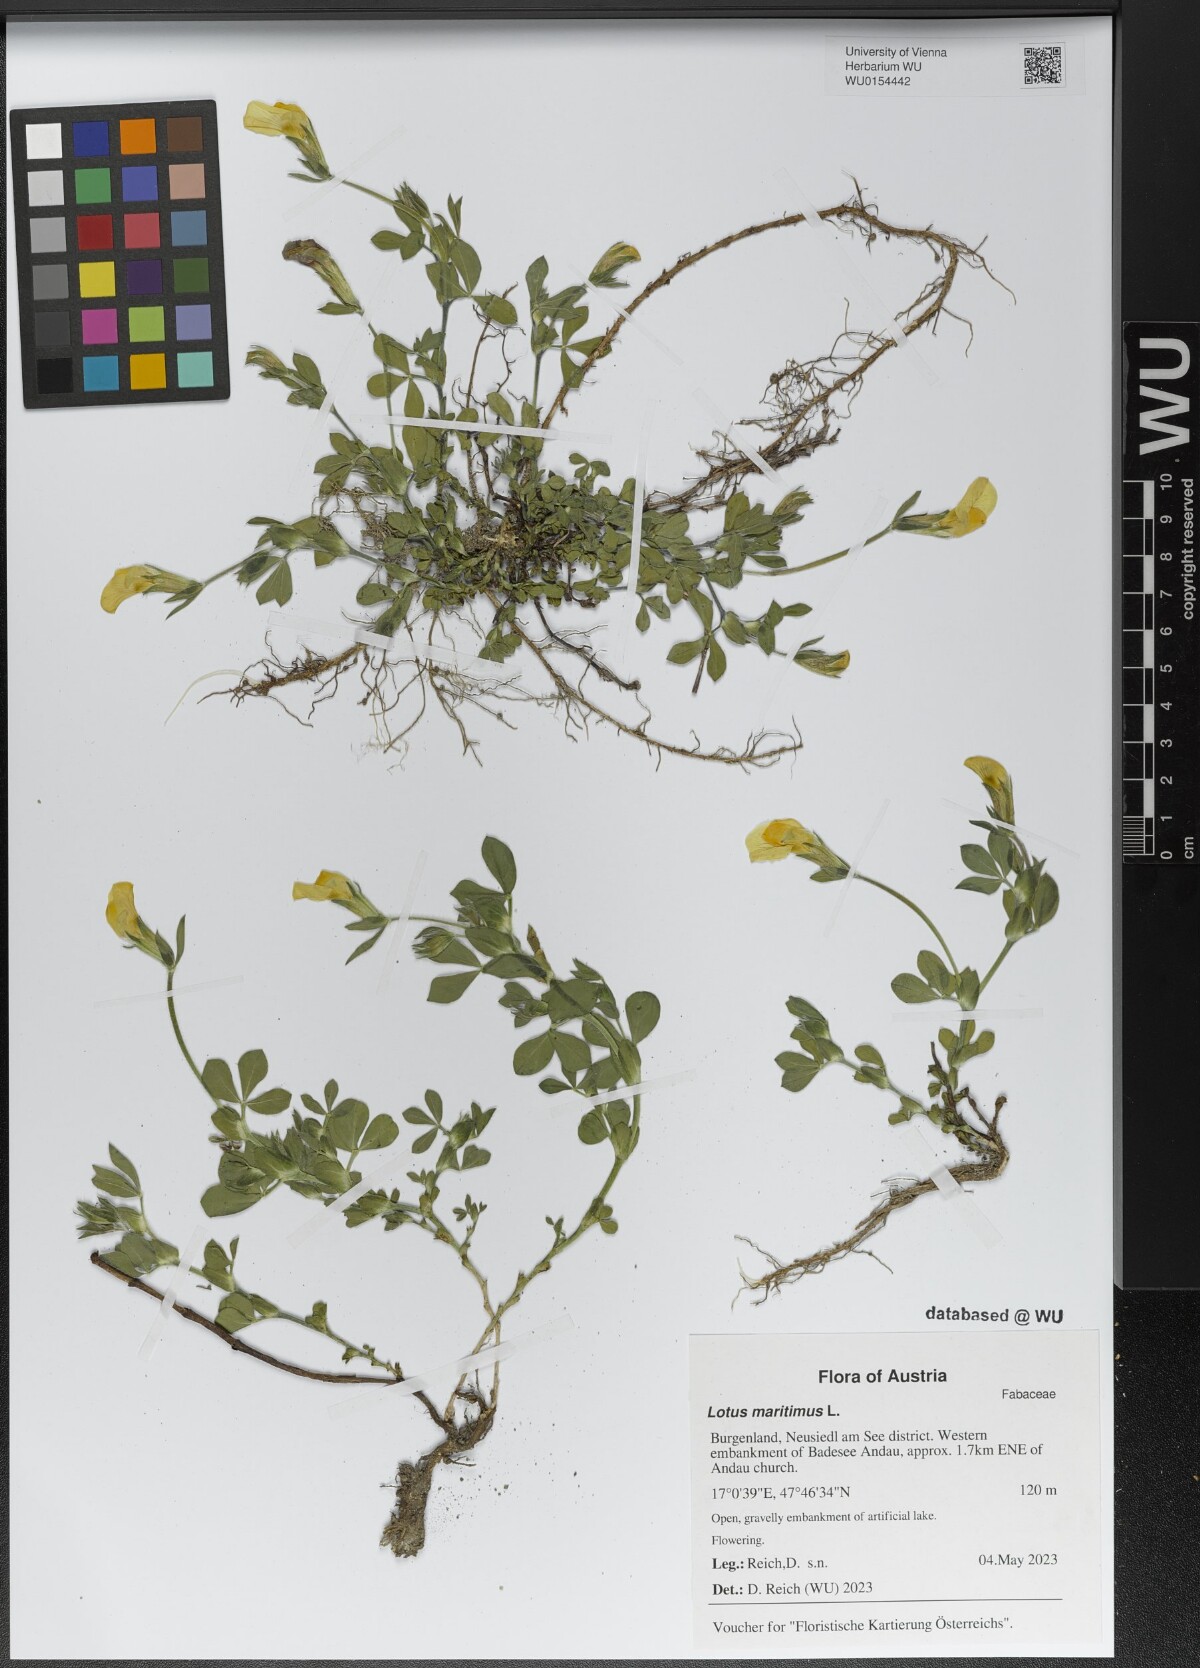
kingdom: Plantae
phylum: Tracheophyta
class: Magnoliopsida
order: Fabales
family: Fabaceae
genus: Lotus
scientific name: Lotus maritimus
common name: Dragon's-teeth
